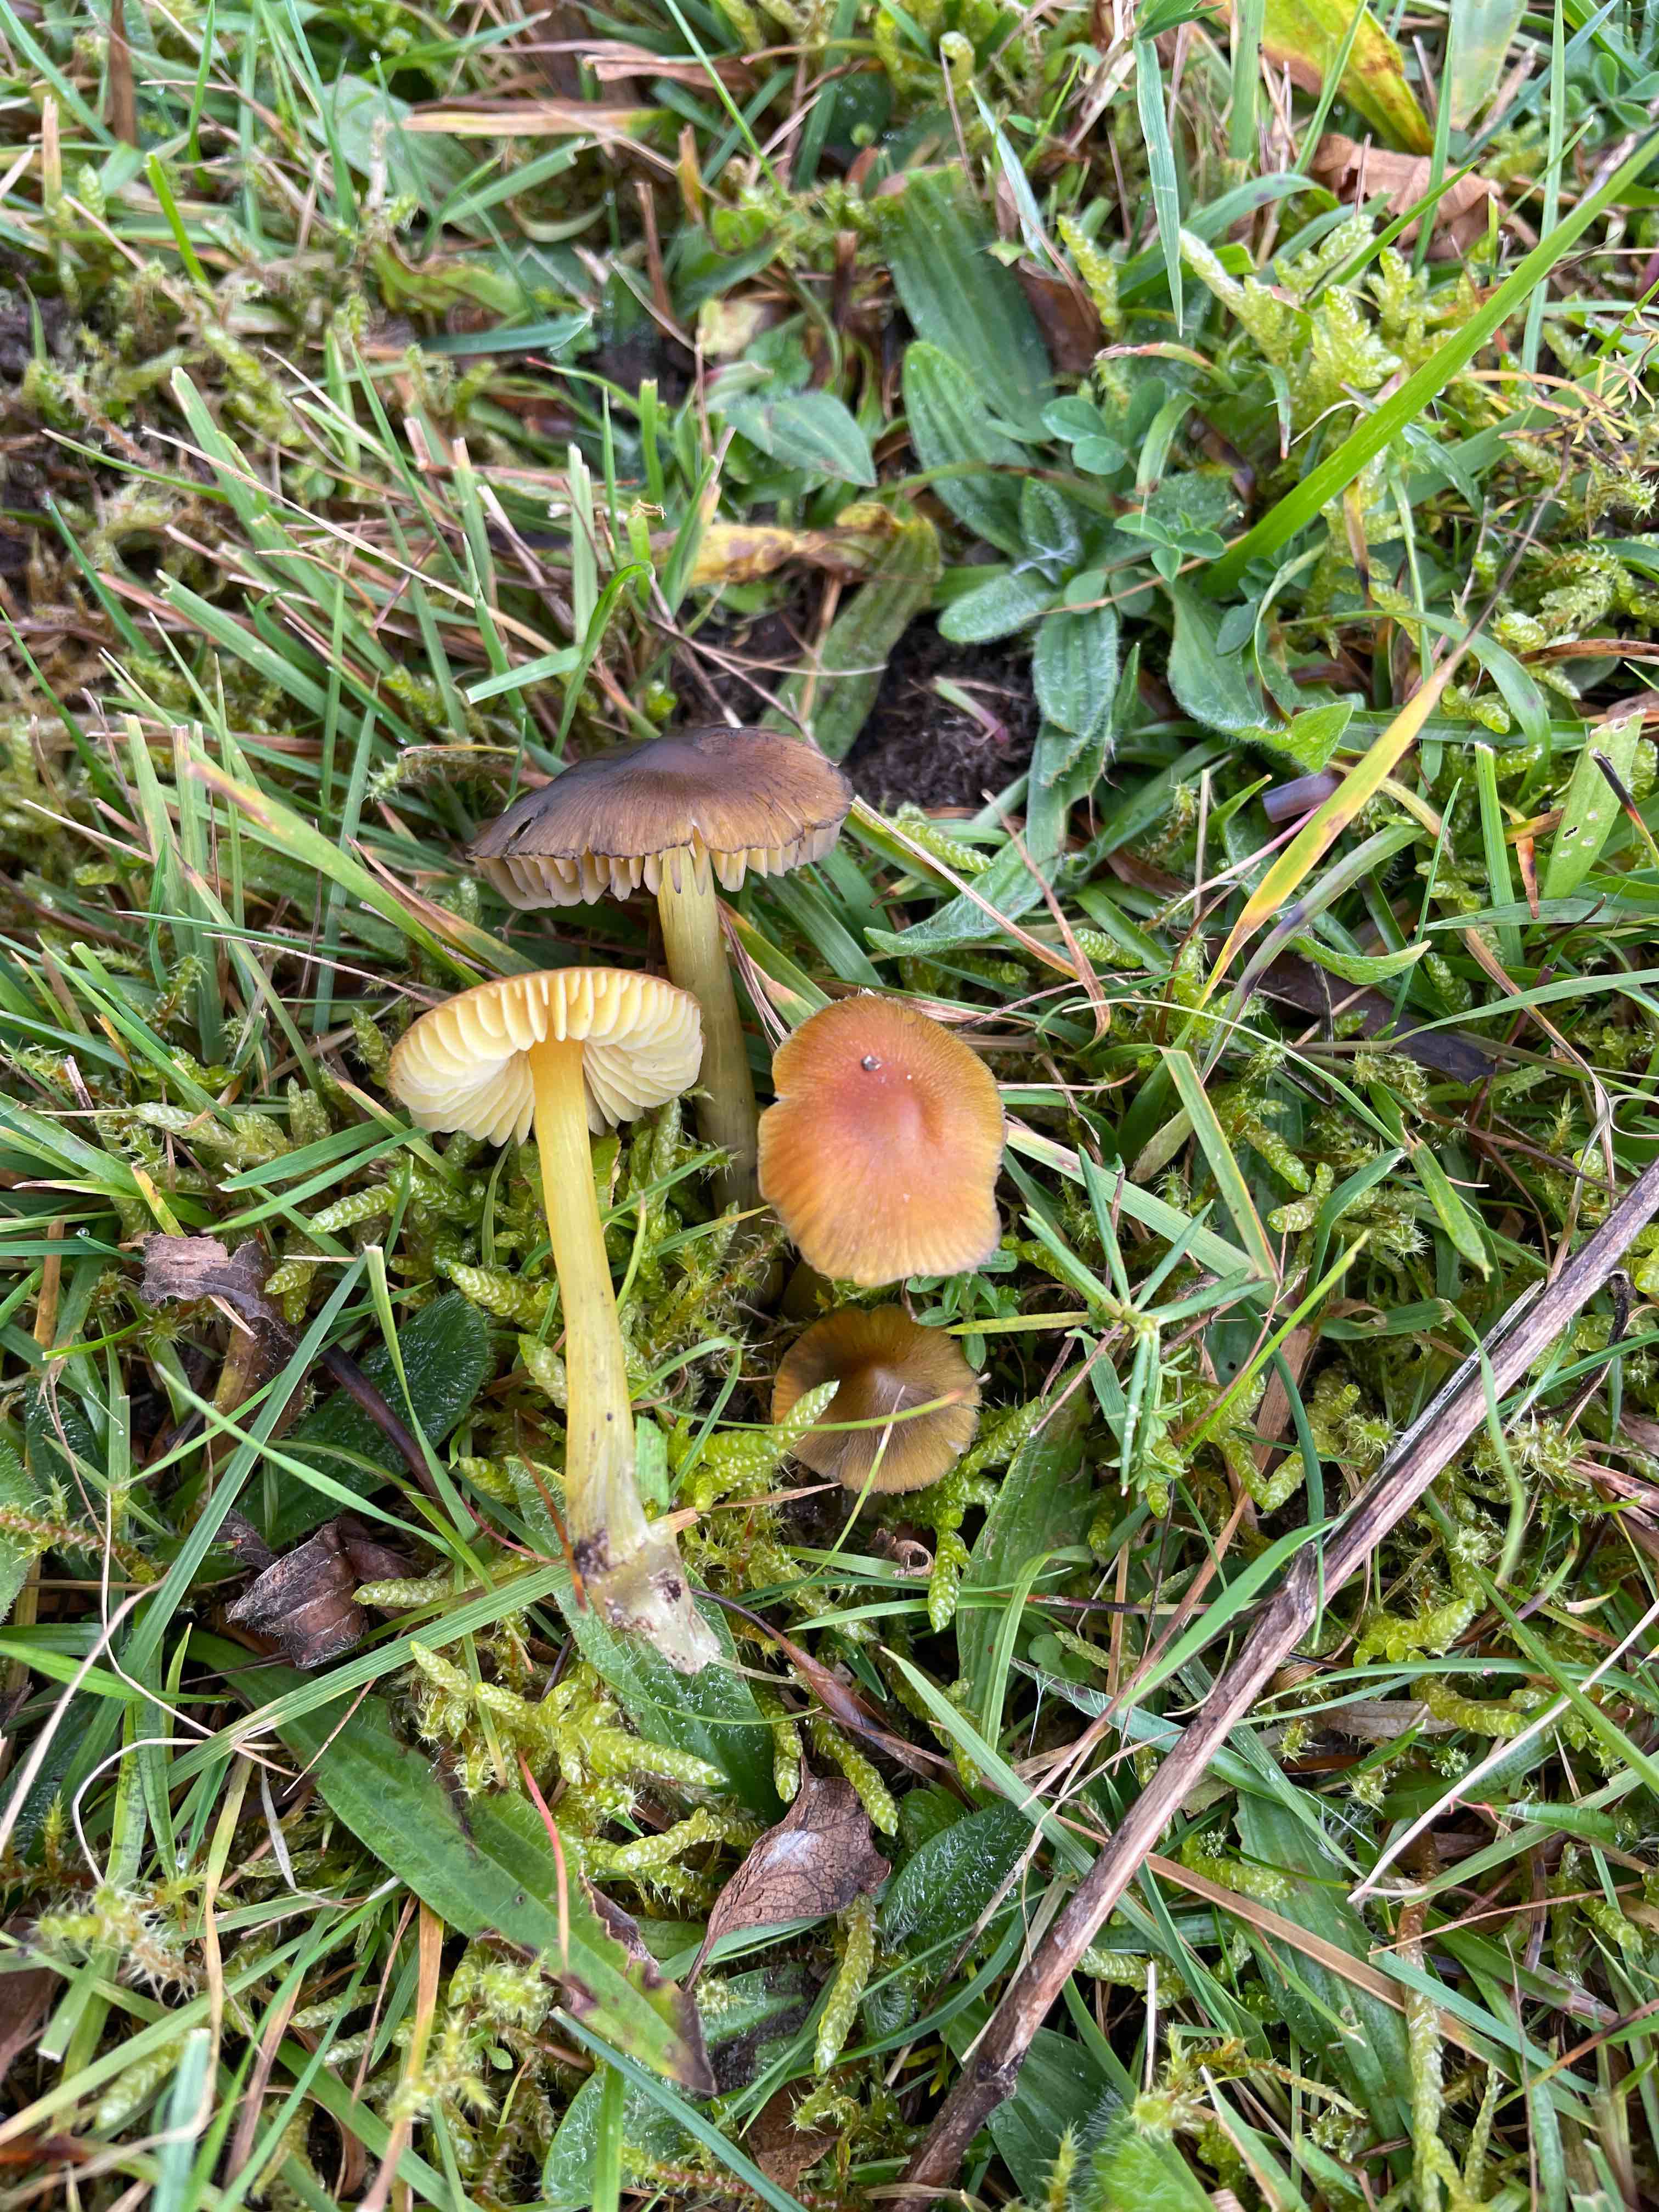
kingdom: Fungi
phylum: Basidiomycota
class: Agaricomycetes
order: Agaricales
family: Hygrophoraceae
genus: Hygrocybe
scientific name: Hygrocybe conica
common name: kegle-vokshat
